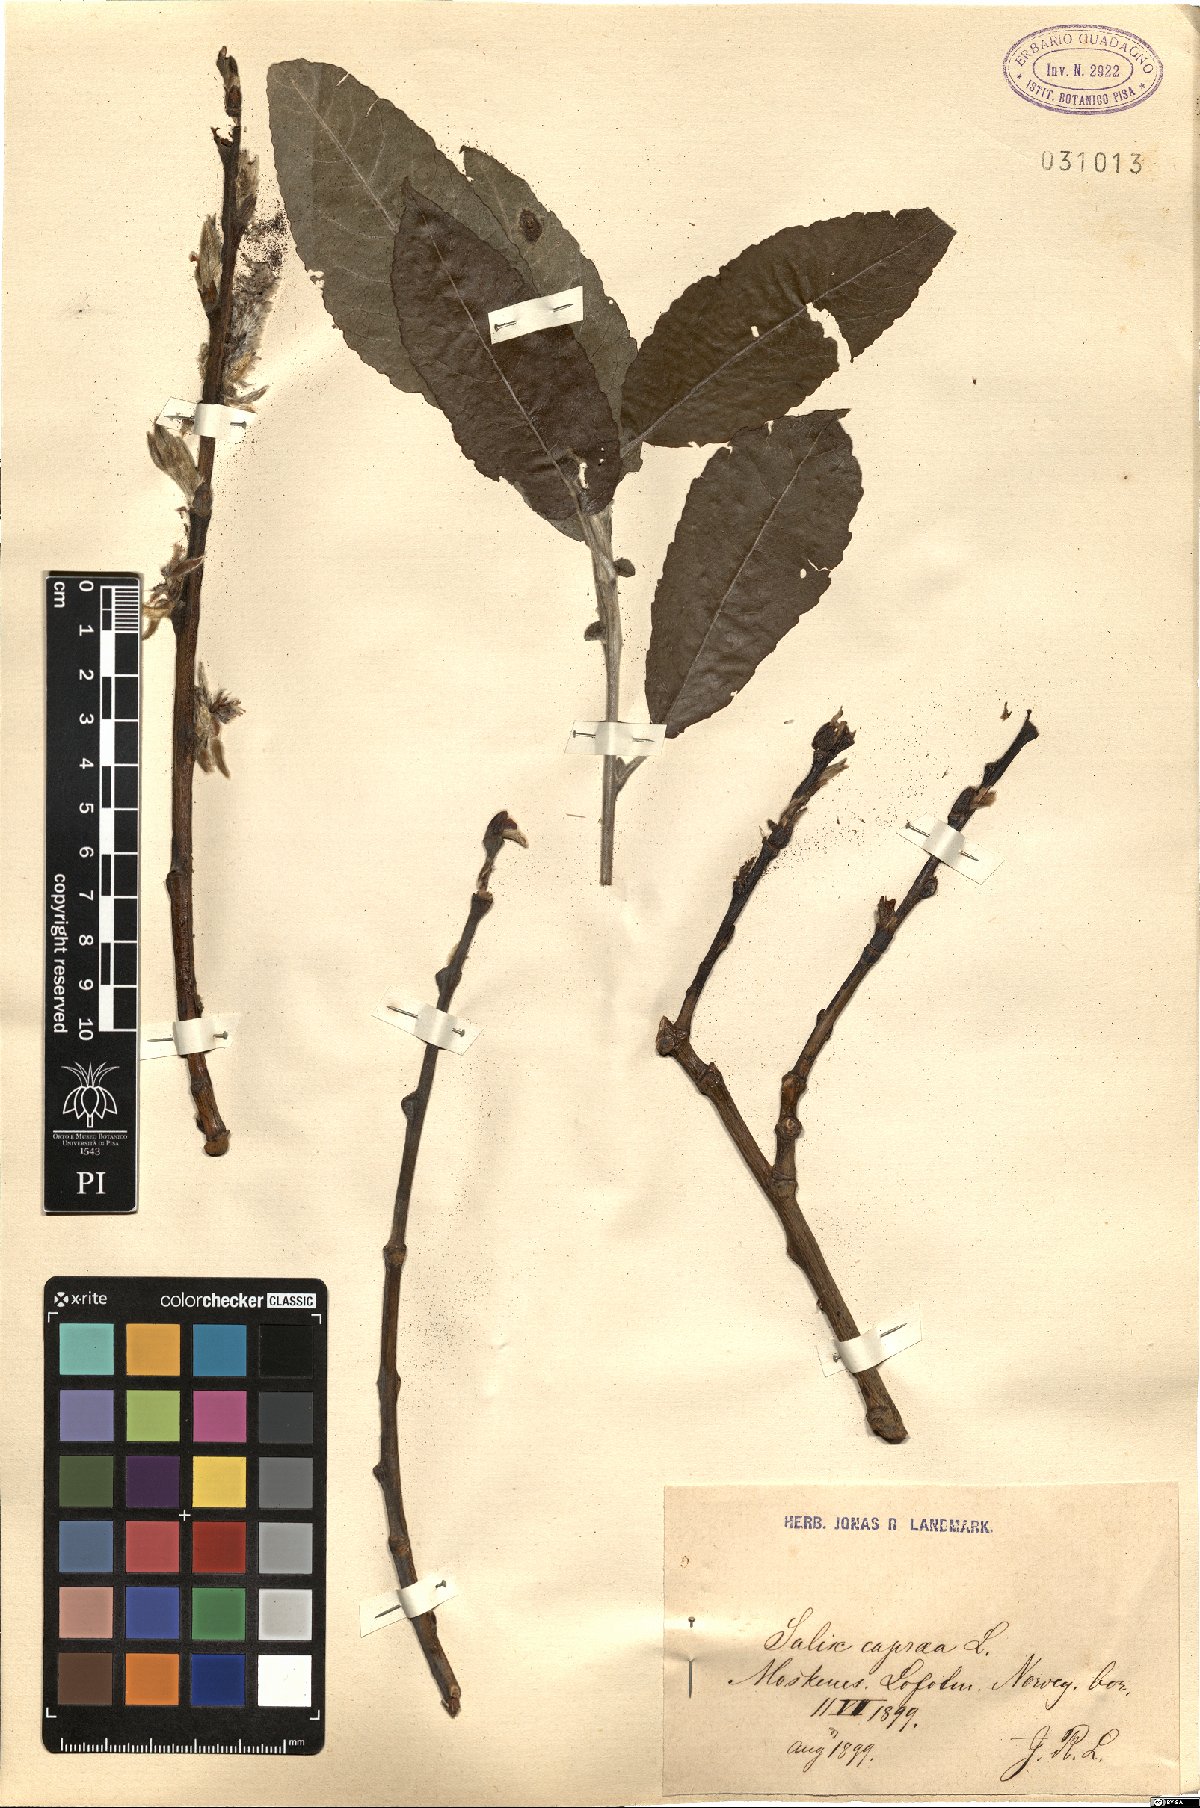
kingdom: Plantae
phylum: Tracheophyta
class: Magnoliopsida
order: Malpighiales
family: Salicaceae
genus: Salix
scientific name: Salix caprea
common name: Goat willow
